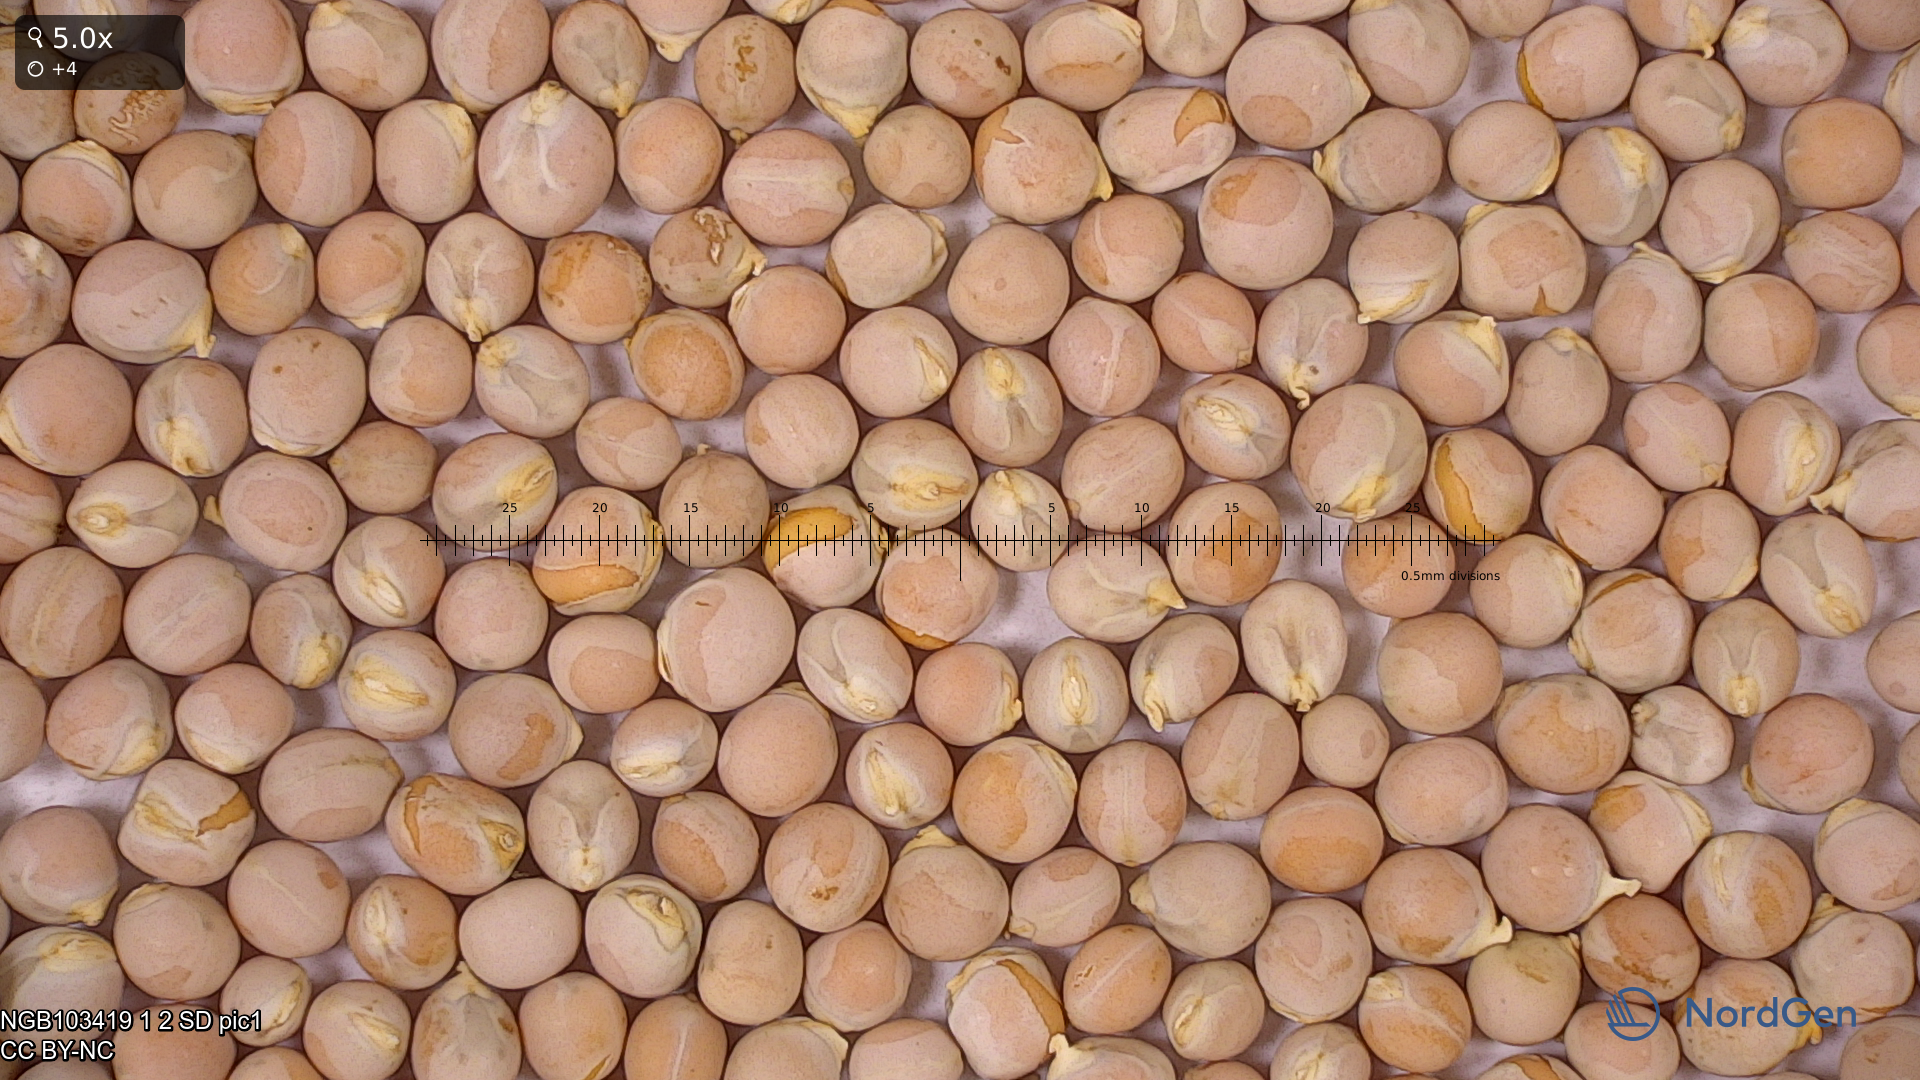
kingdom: Plantae
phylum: Tracheophyta
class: Magnoliopsida
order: Fabales
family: Fabaceae
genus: Lathyrus
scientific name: Lathyrus oleraceus
